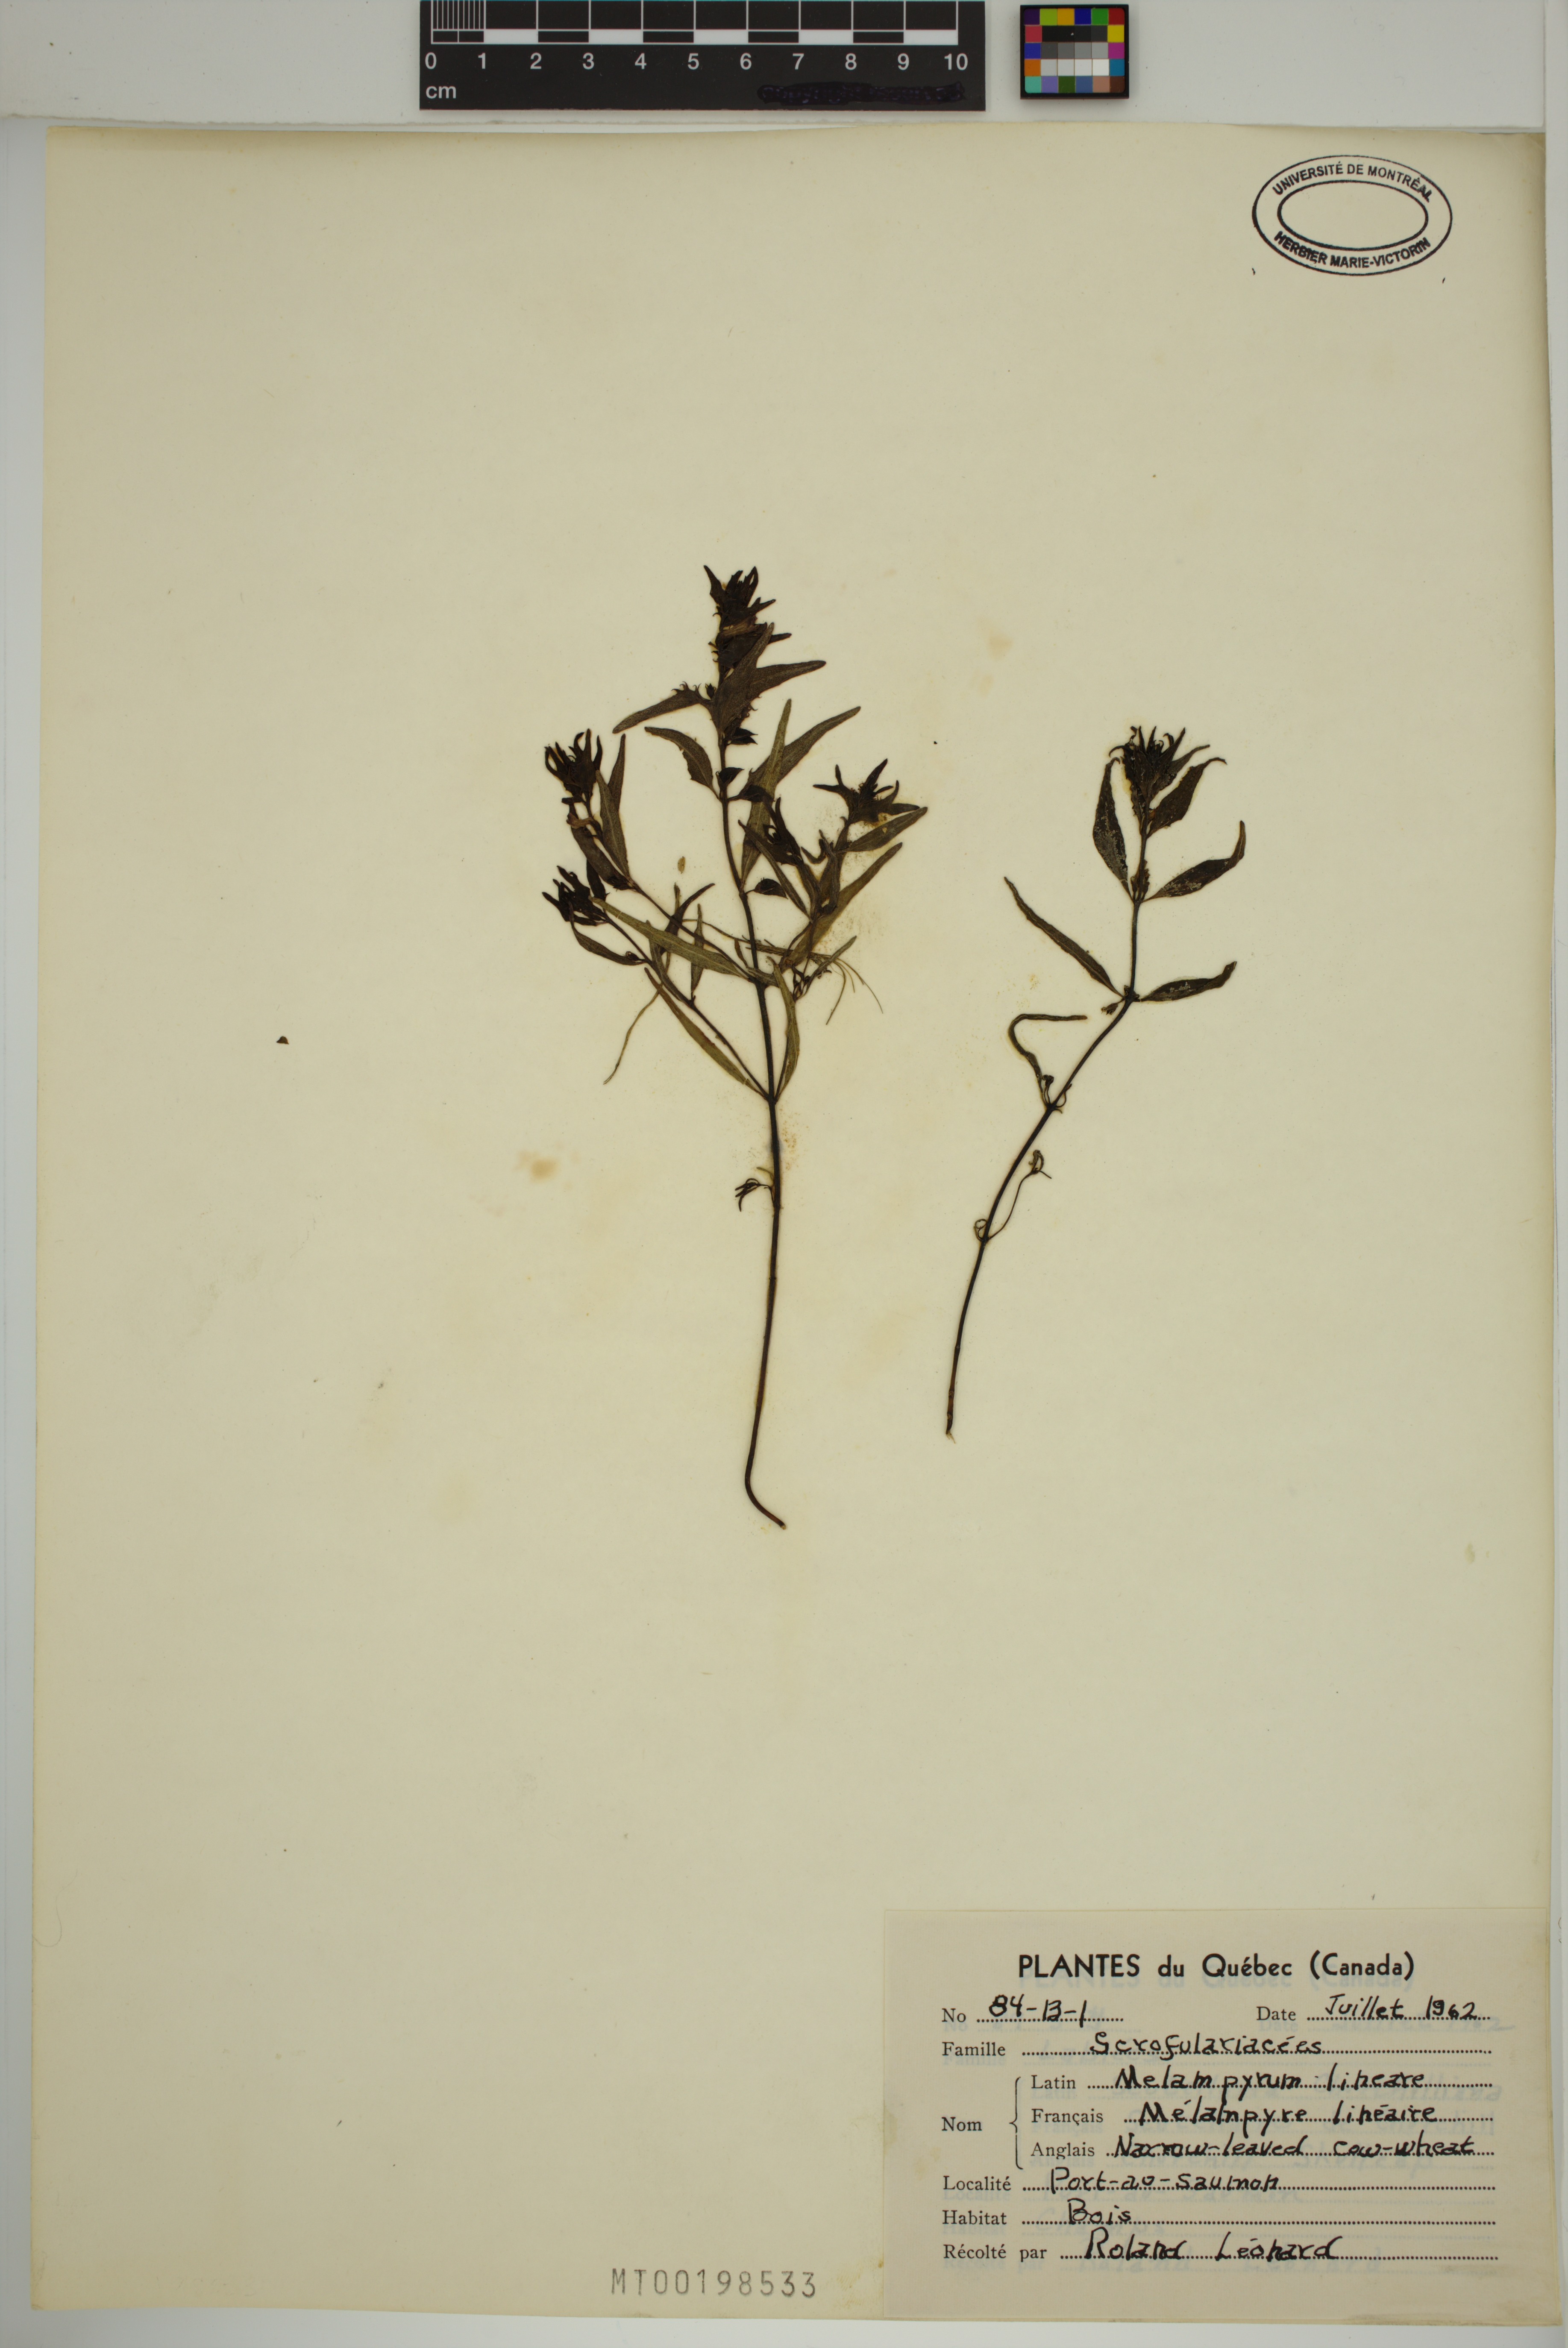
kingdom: Plantae
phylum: Tracheophyta
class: Magnoliopsida
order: Lamiales
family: Orobanchaceae
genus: Melampyrum
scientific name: Melampyrum lineare
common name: American cow-wheat
